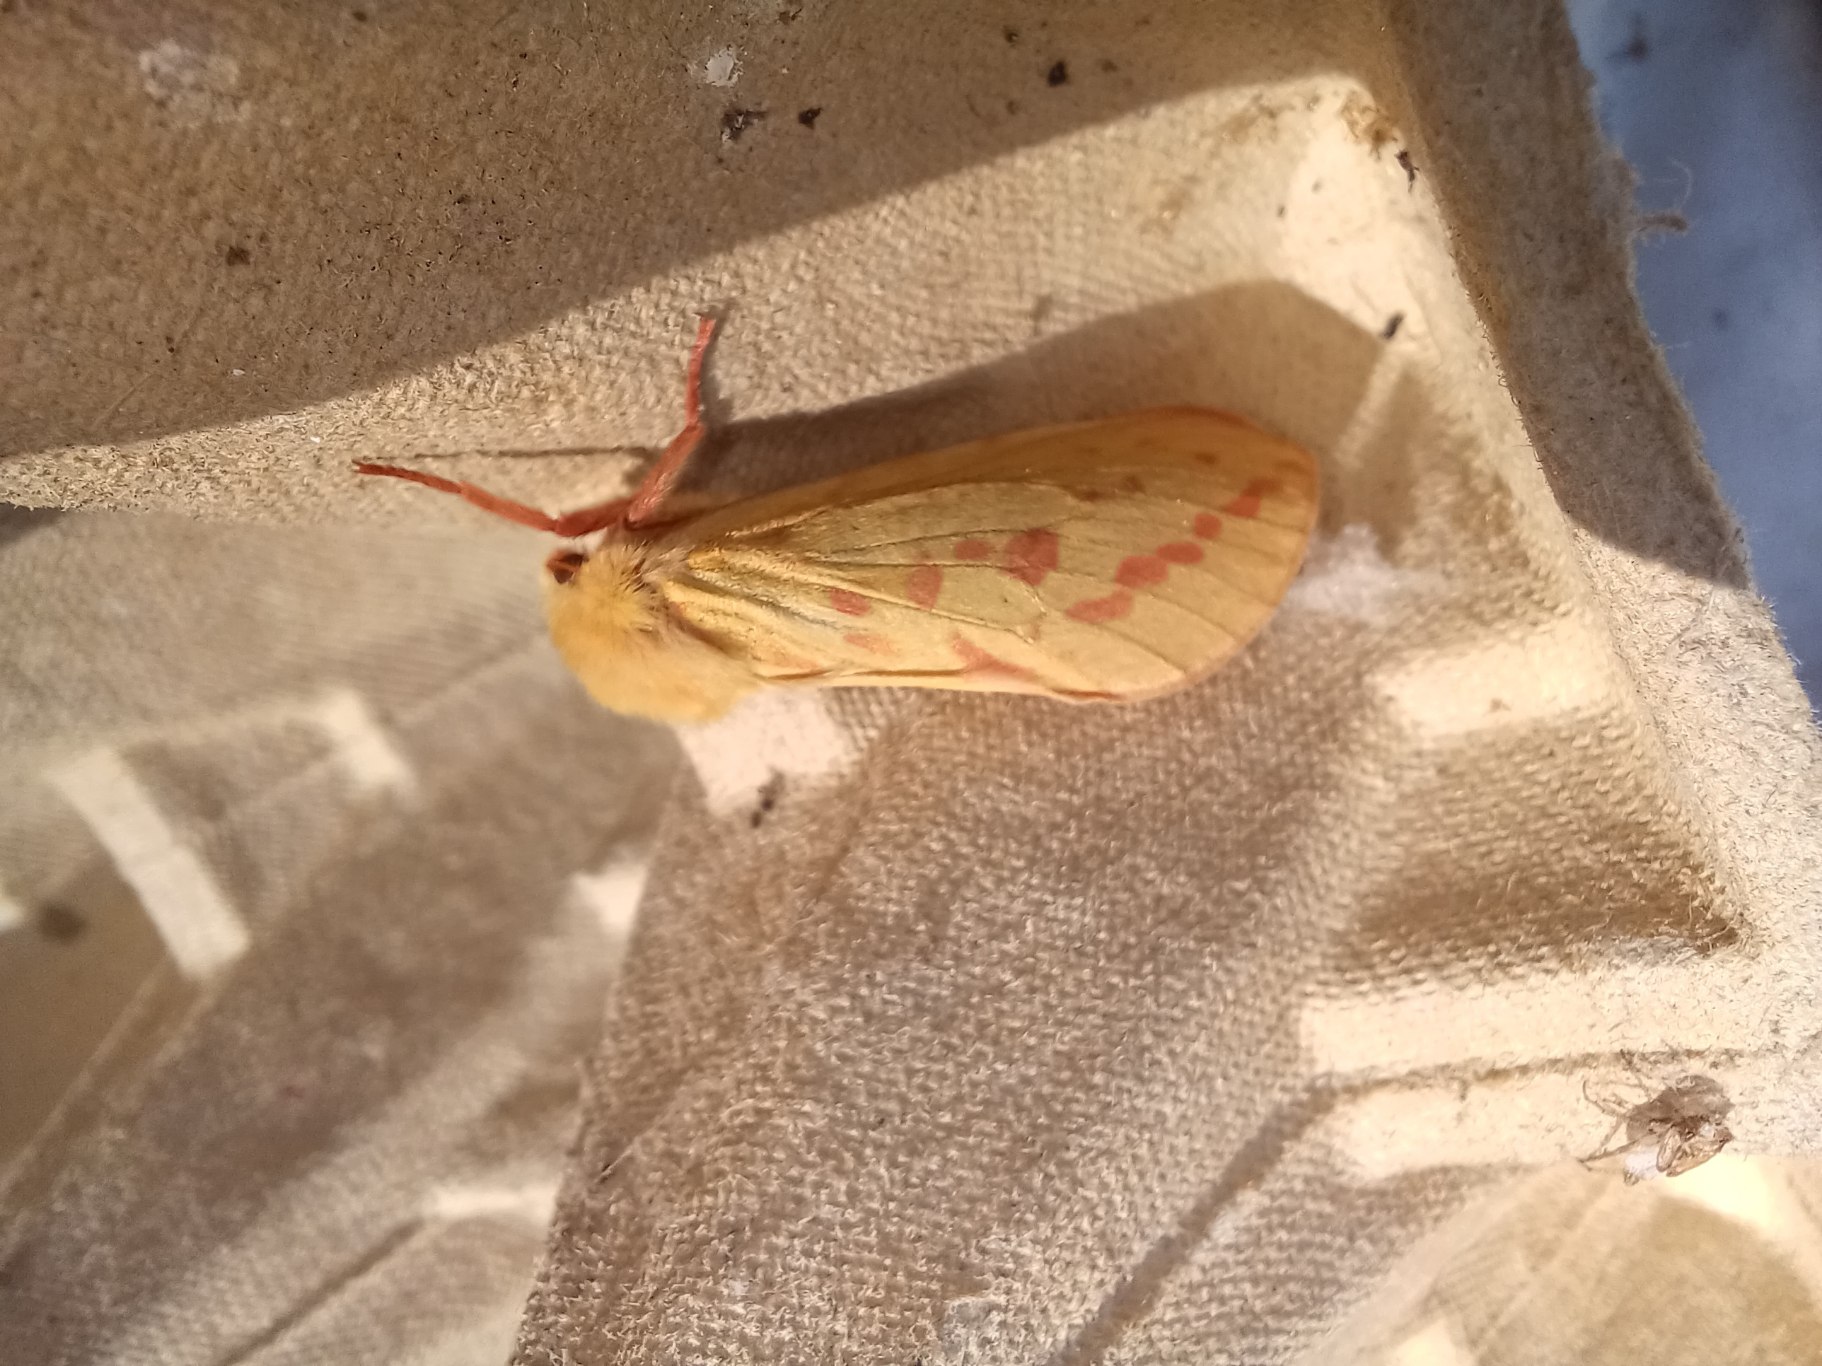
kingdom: Animalia
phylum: Arthropoda
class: Insecta
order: Lepidoptera
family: Hepialidae
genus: Hepialus
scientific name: Hepialus humuli
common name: Humlerodæder
